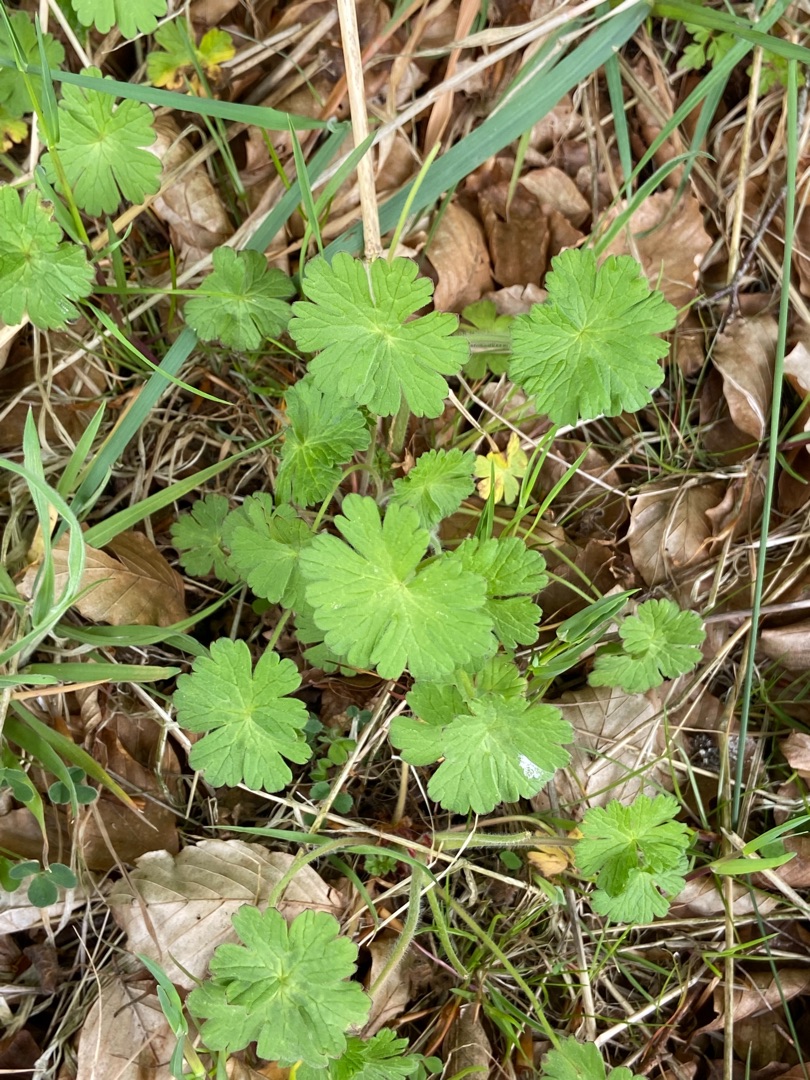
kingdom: Plantae
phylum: Tracheophyta
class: Magnoliopsida
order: Geraniales
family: Geraniaceae
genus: Geranium
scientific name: Geranium molle
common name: Blød storkenæb
